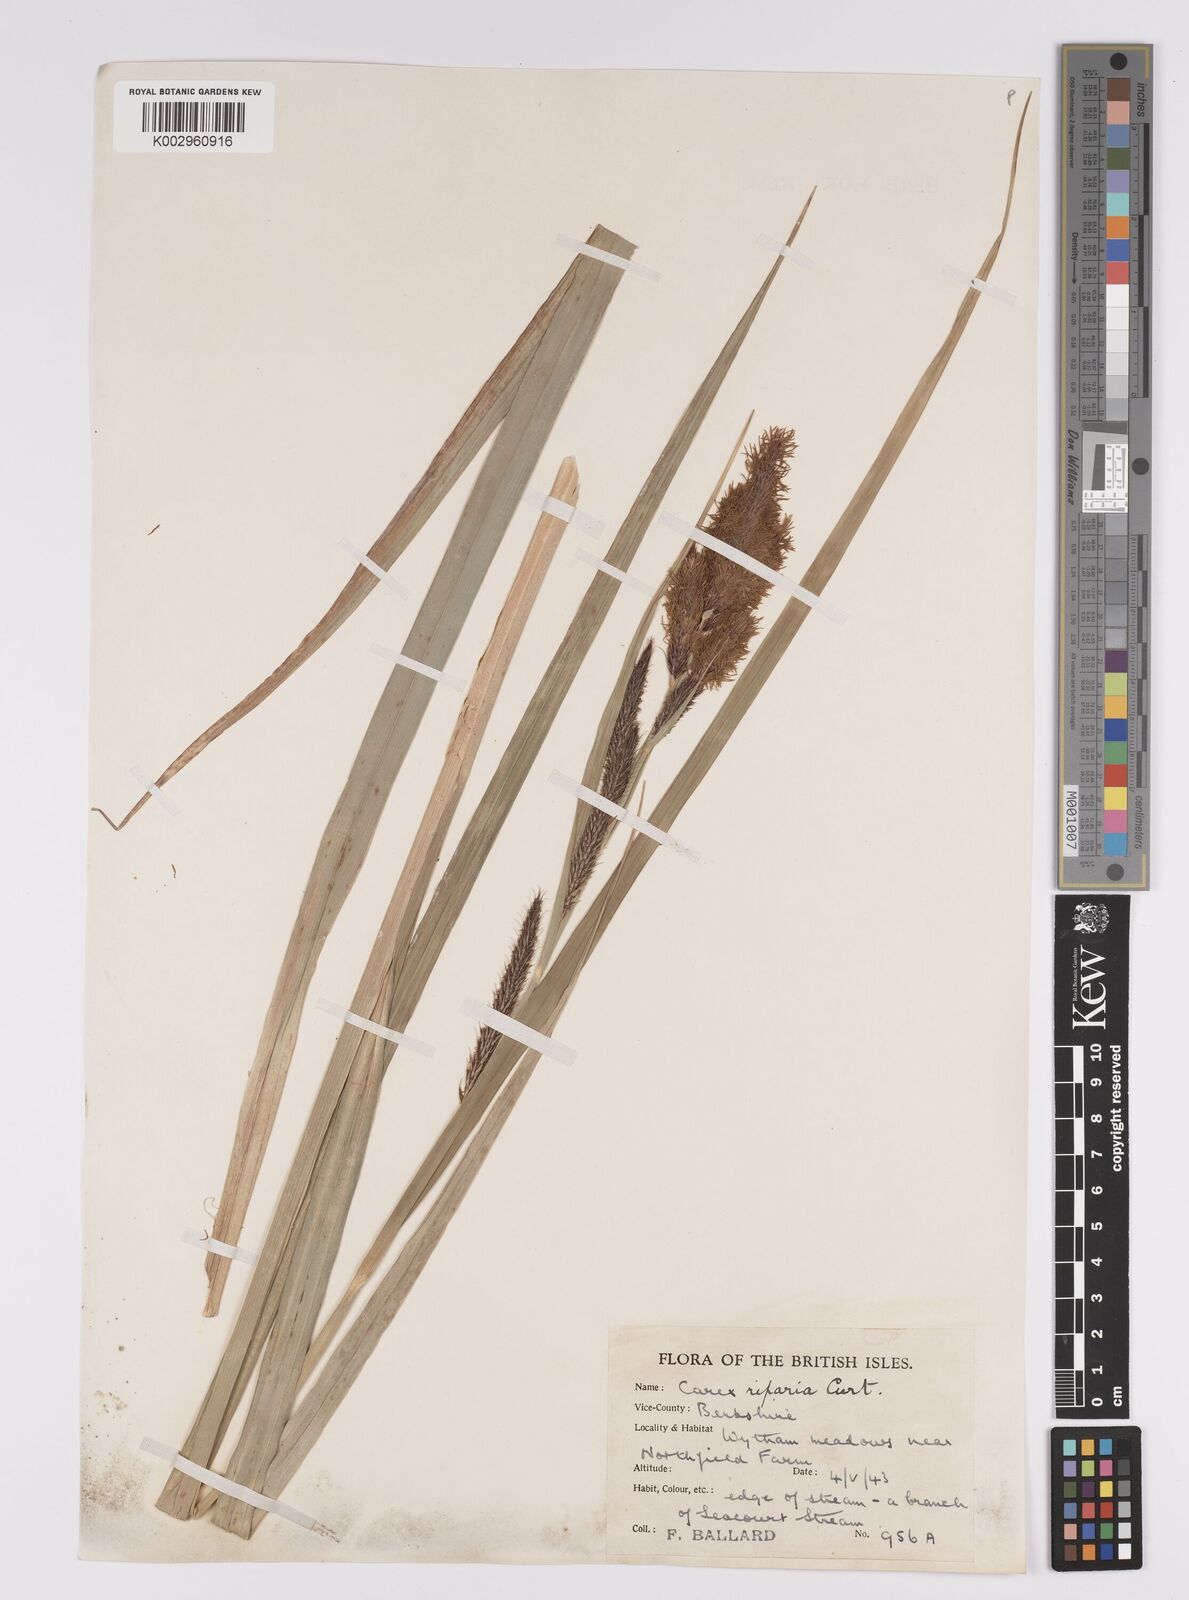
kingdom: Plantae
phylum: Tracheophyta
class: Liliopsida
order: Poales
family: Cyperaceae
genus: Carex
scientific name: Carex riparia
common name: Greater pond-sedge
